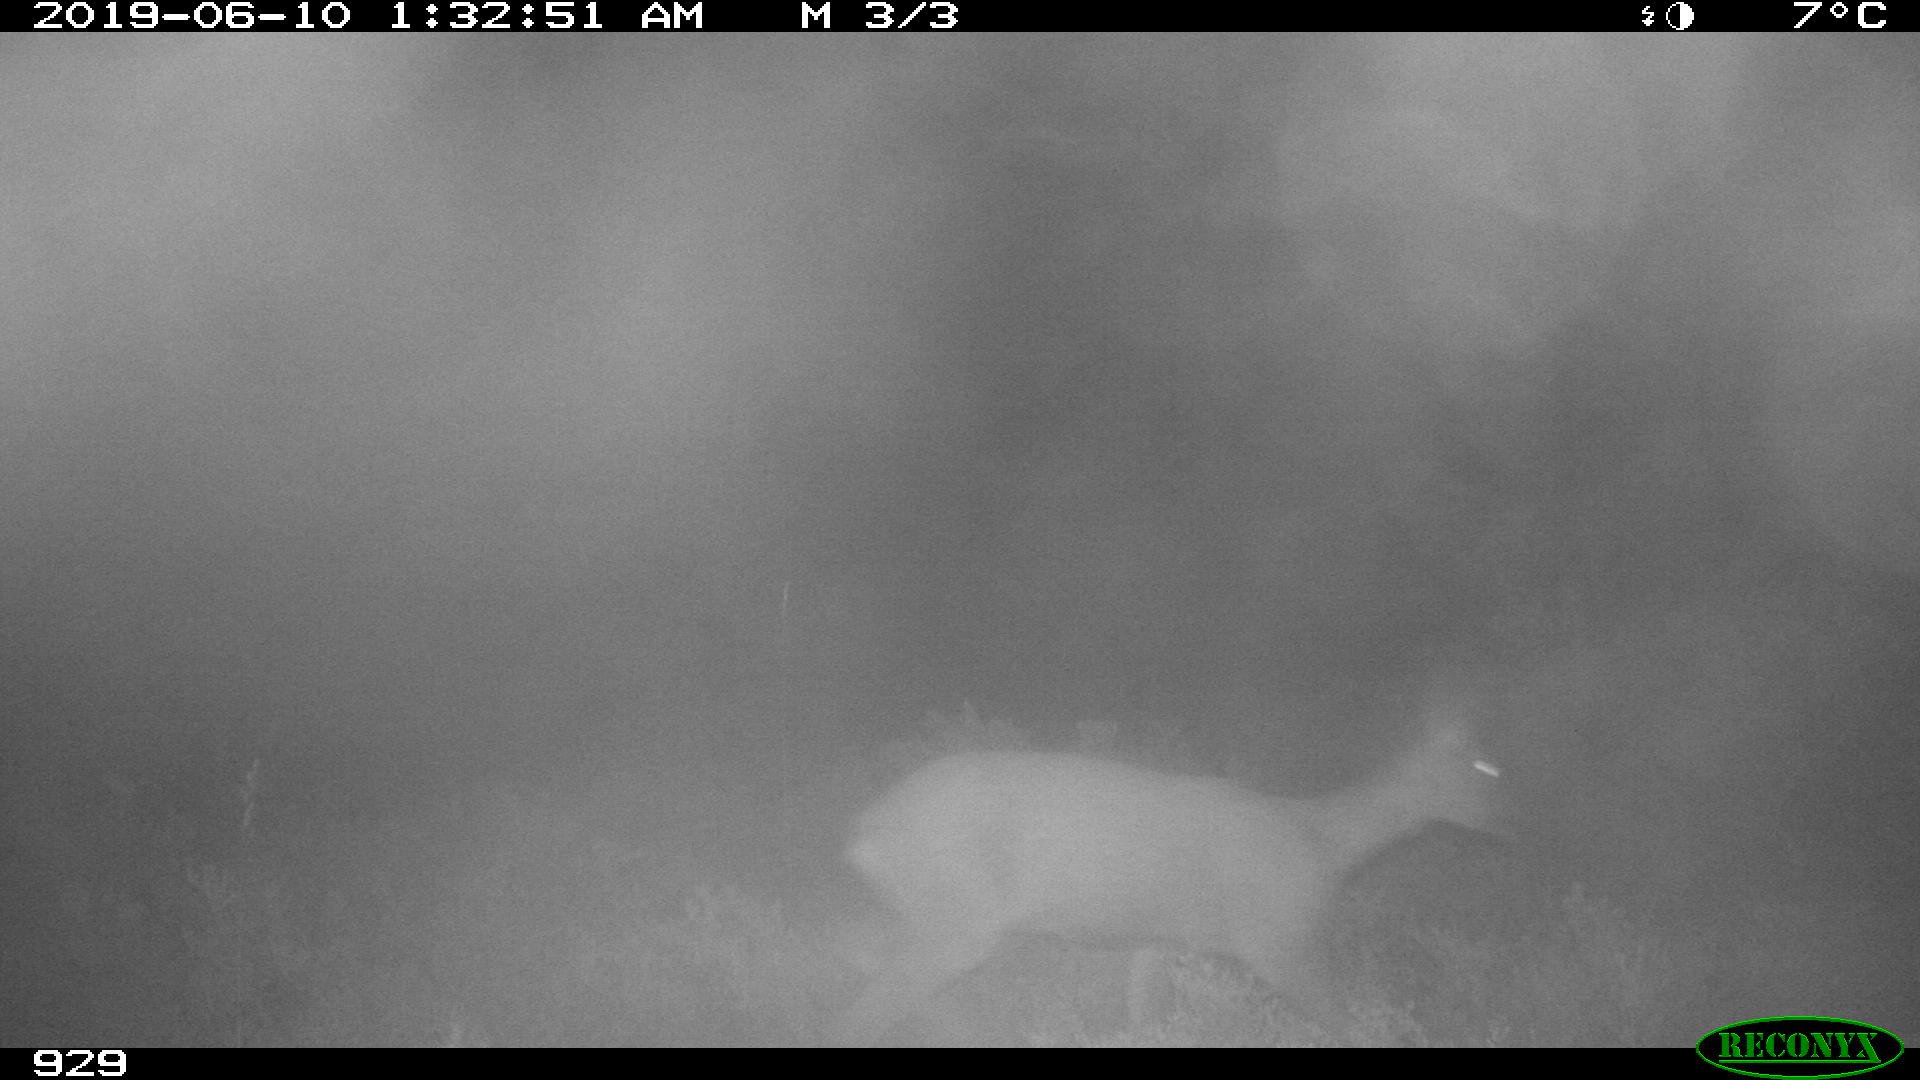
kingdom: Animalia
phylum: Chordata
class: Mammalia
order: Artiodactyla
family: Cervidae
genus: Capreolus
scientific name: Capreolus capreolus
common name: Western roe deer
